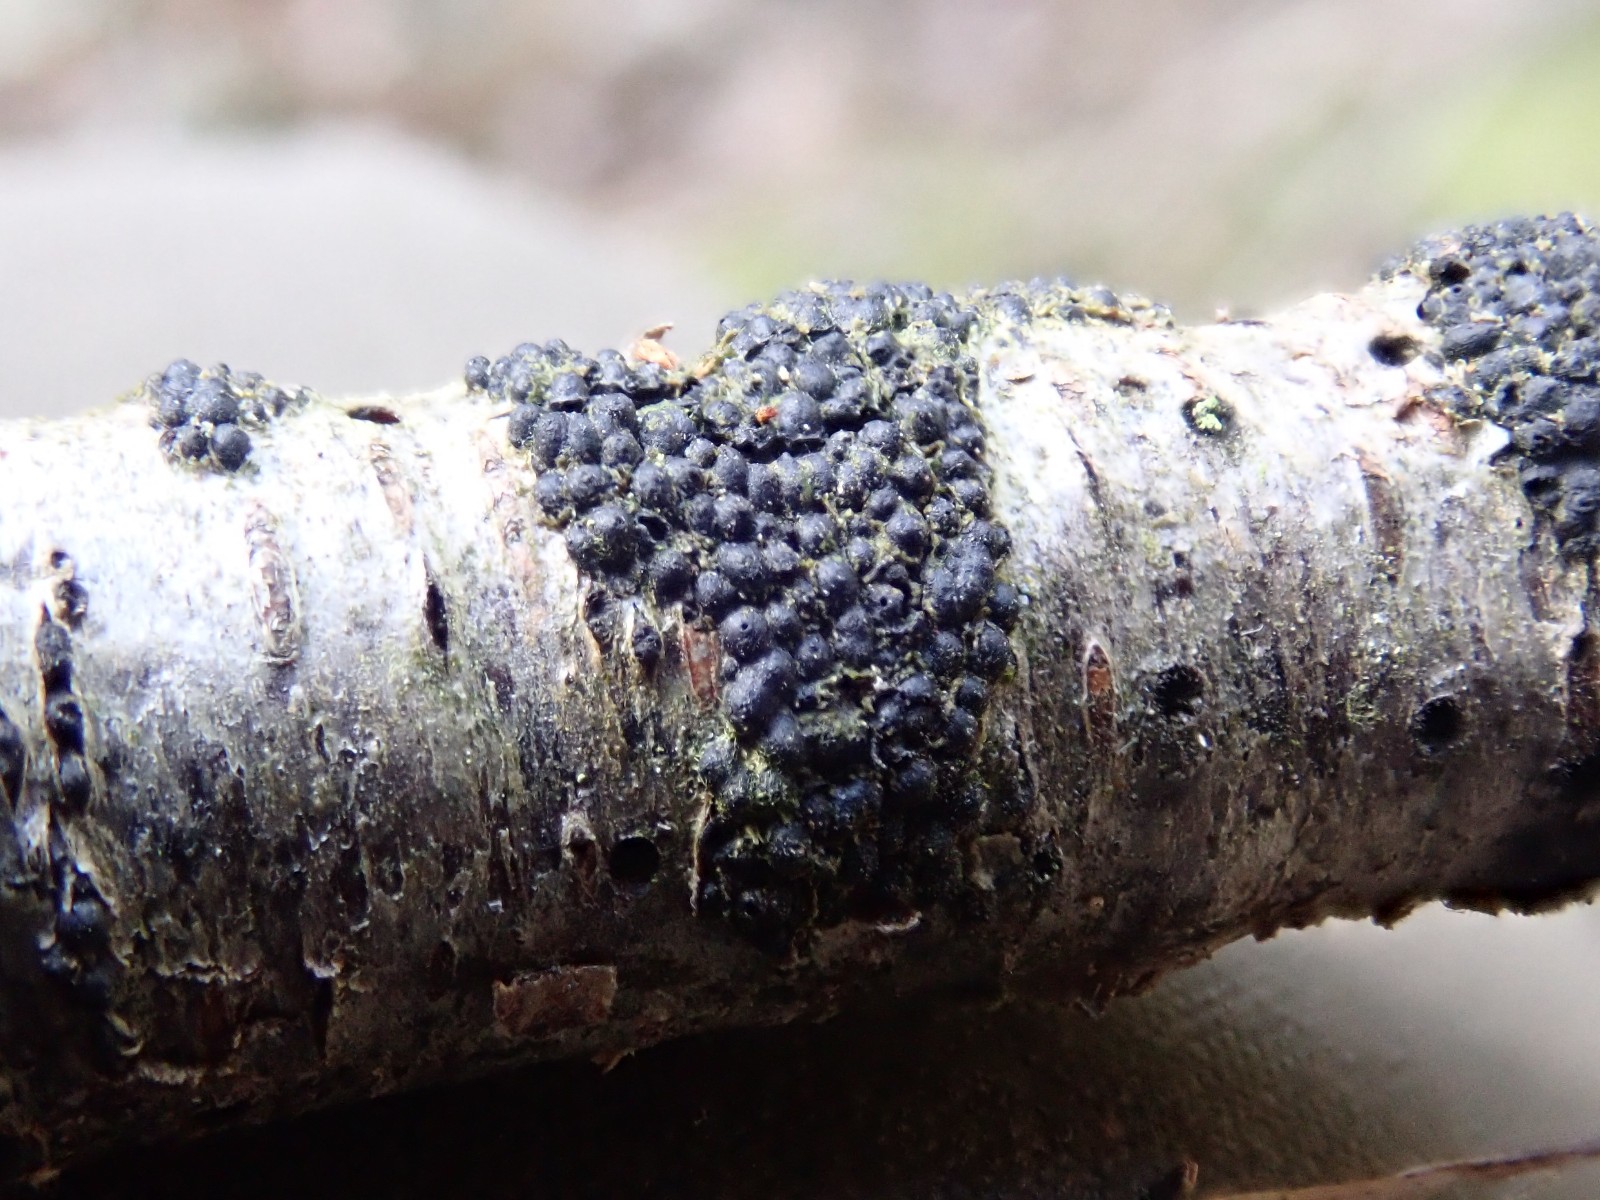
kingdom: Fungi
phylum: Ascomycota
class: Sordariomycetes
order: Xylariales
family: Xylariaceae
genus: Rosellinia
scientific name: Rosellinia
